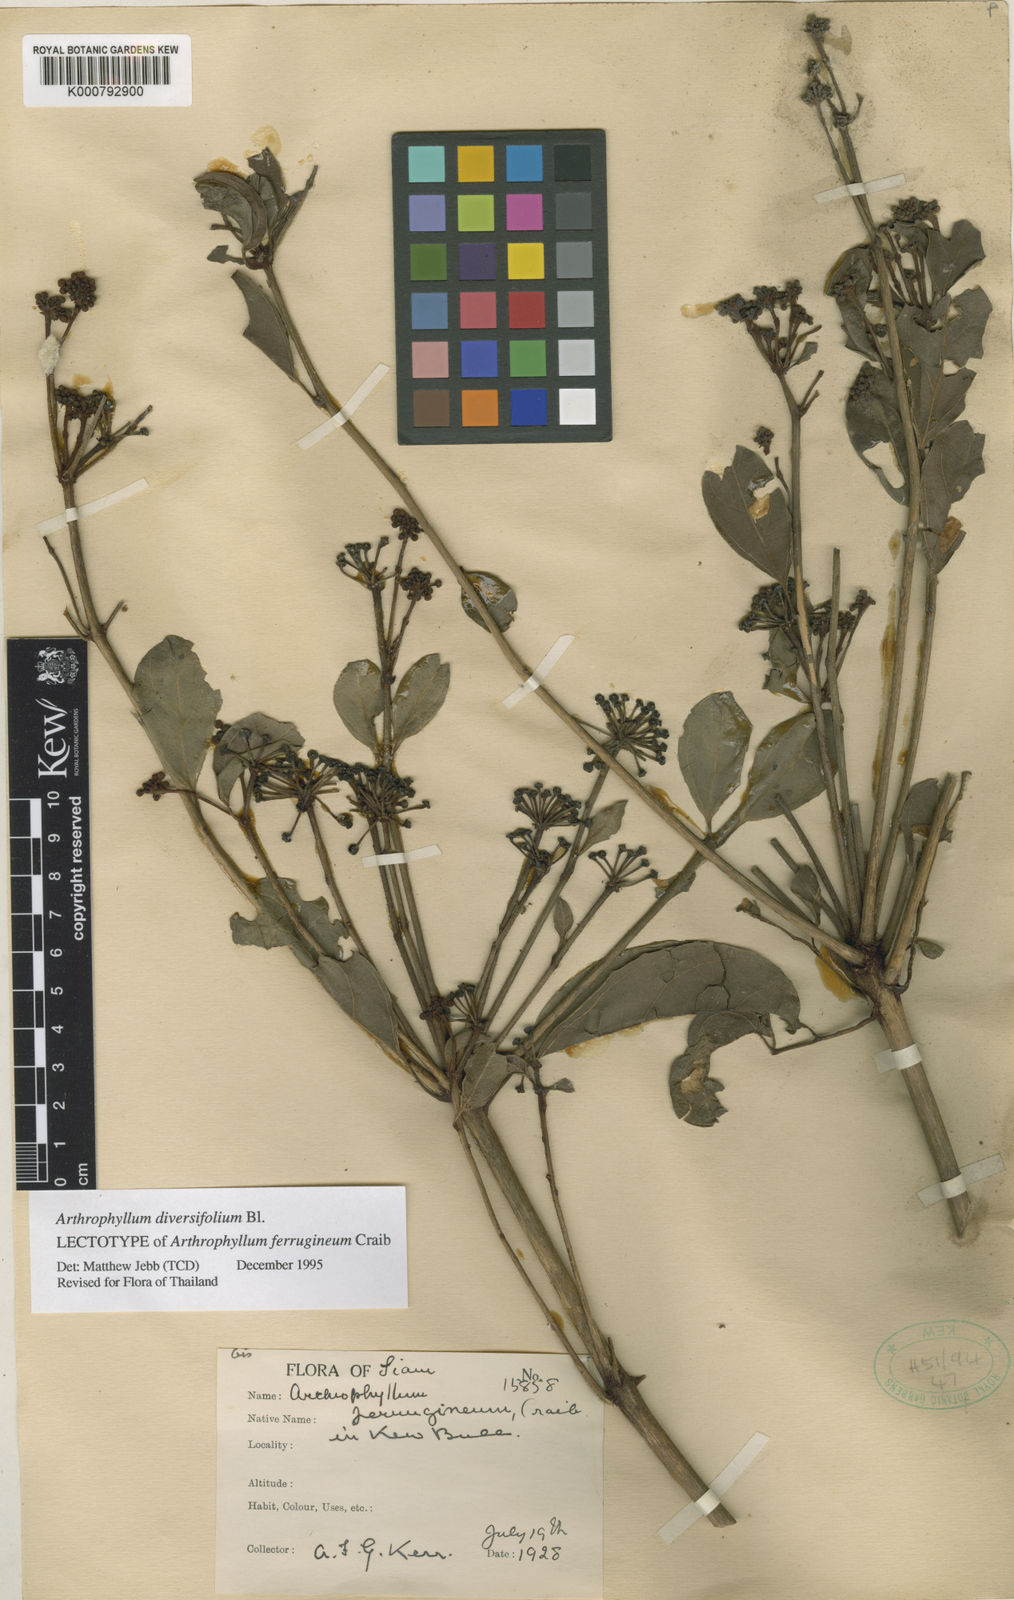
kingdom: Plantae
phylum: Tracheophyta
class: Magnoliopsida
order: Apiales
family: Araliaceae
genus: Polyscias
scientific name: Polyscias diversifolia
